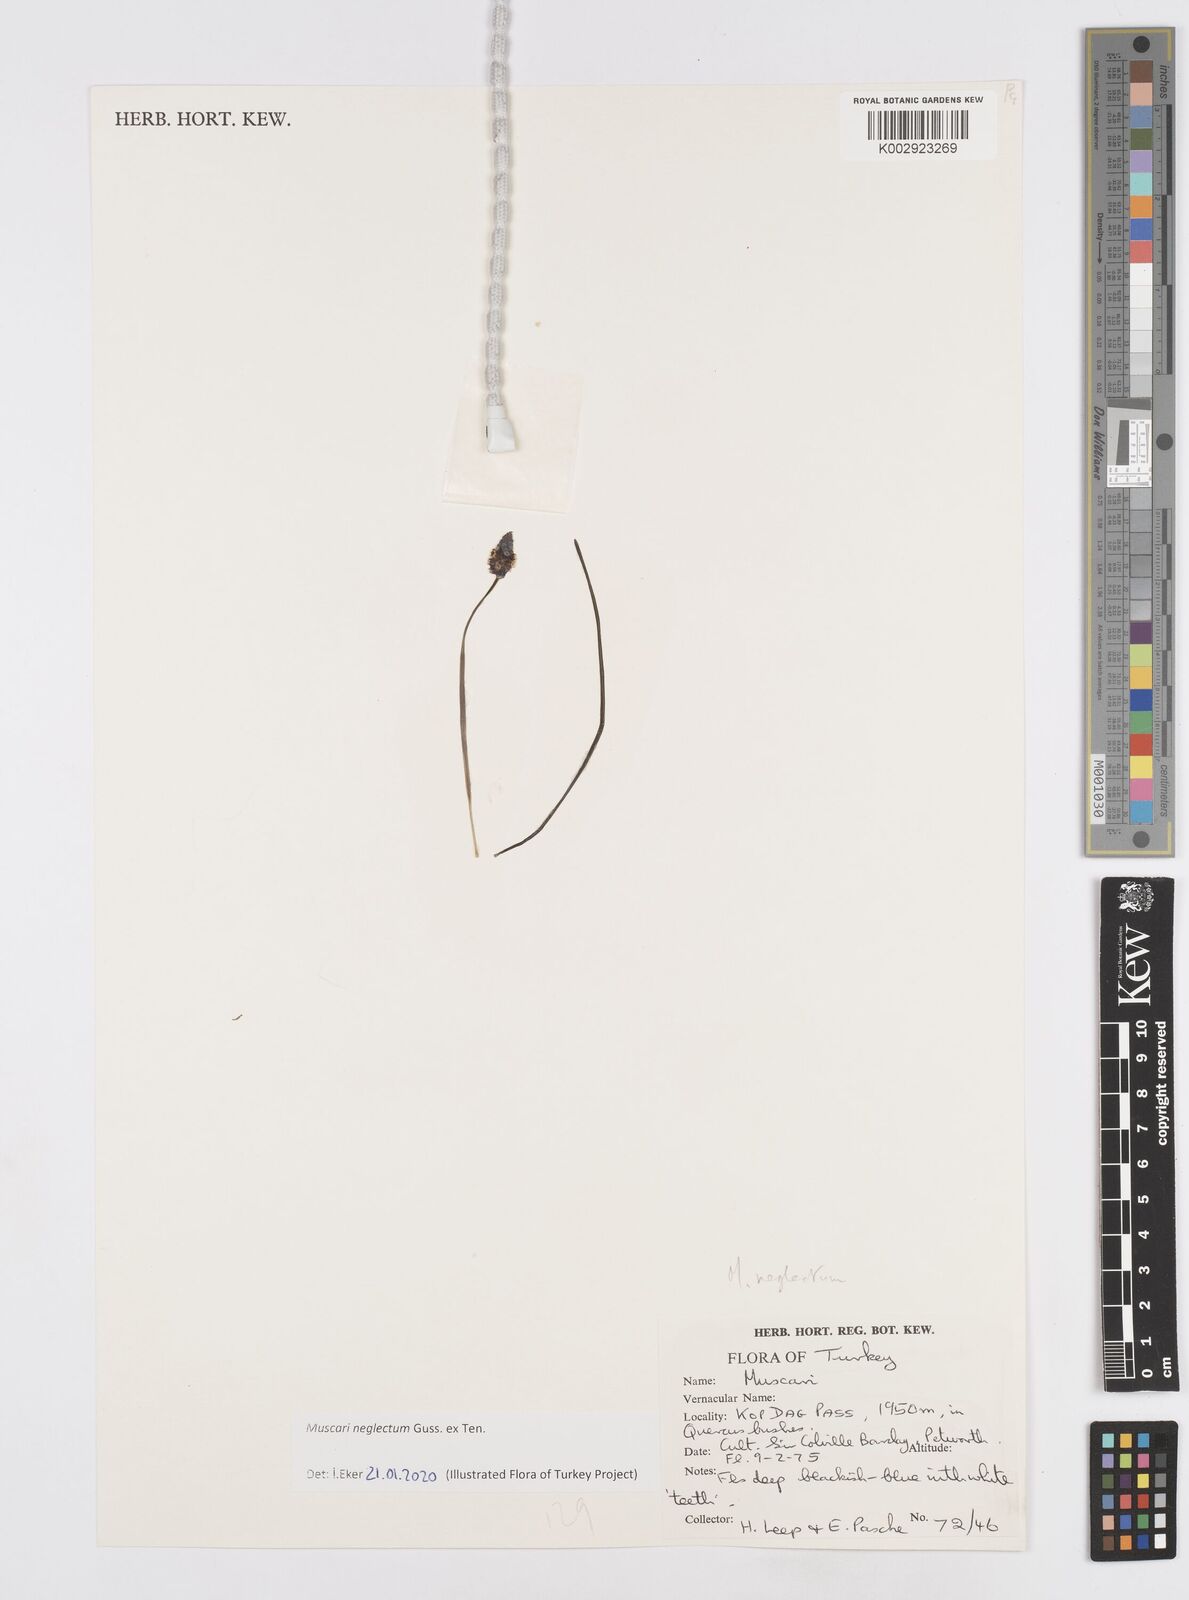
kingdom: Plantae
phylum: Tracheophyta
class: Liliopsida
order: Asparagales
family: Asparagaceae
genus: Muscari
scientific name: Muscari
